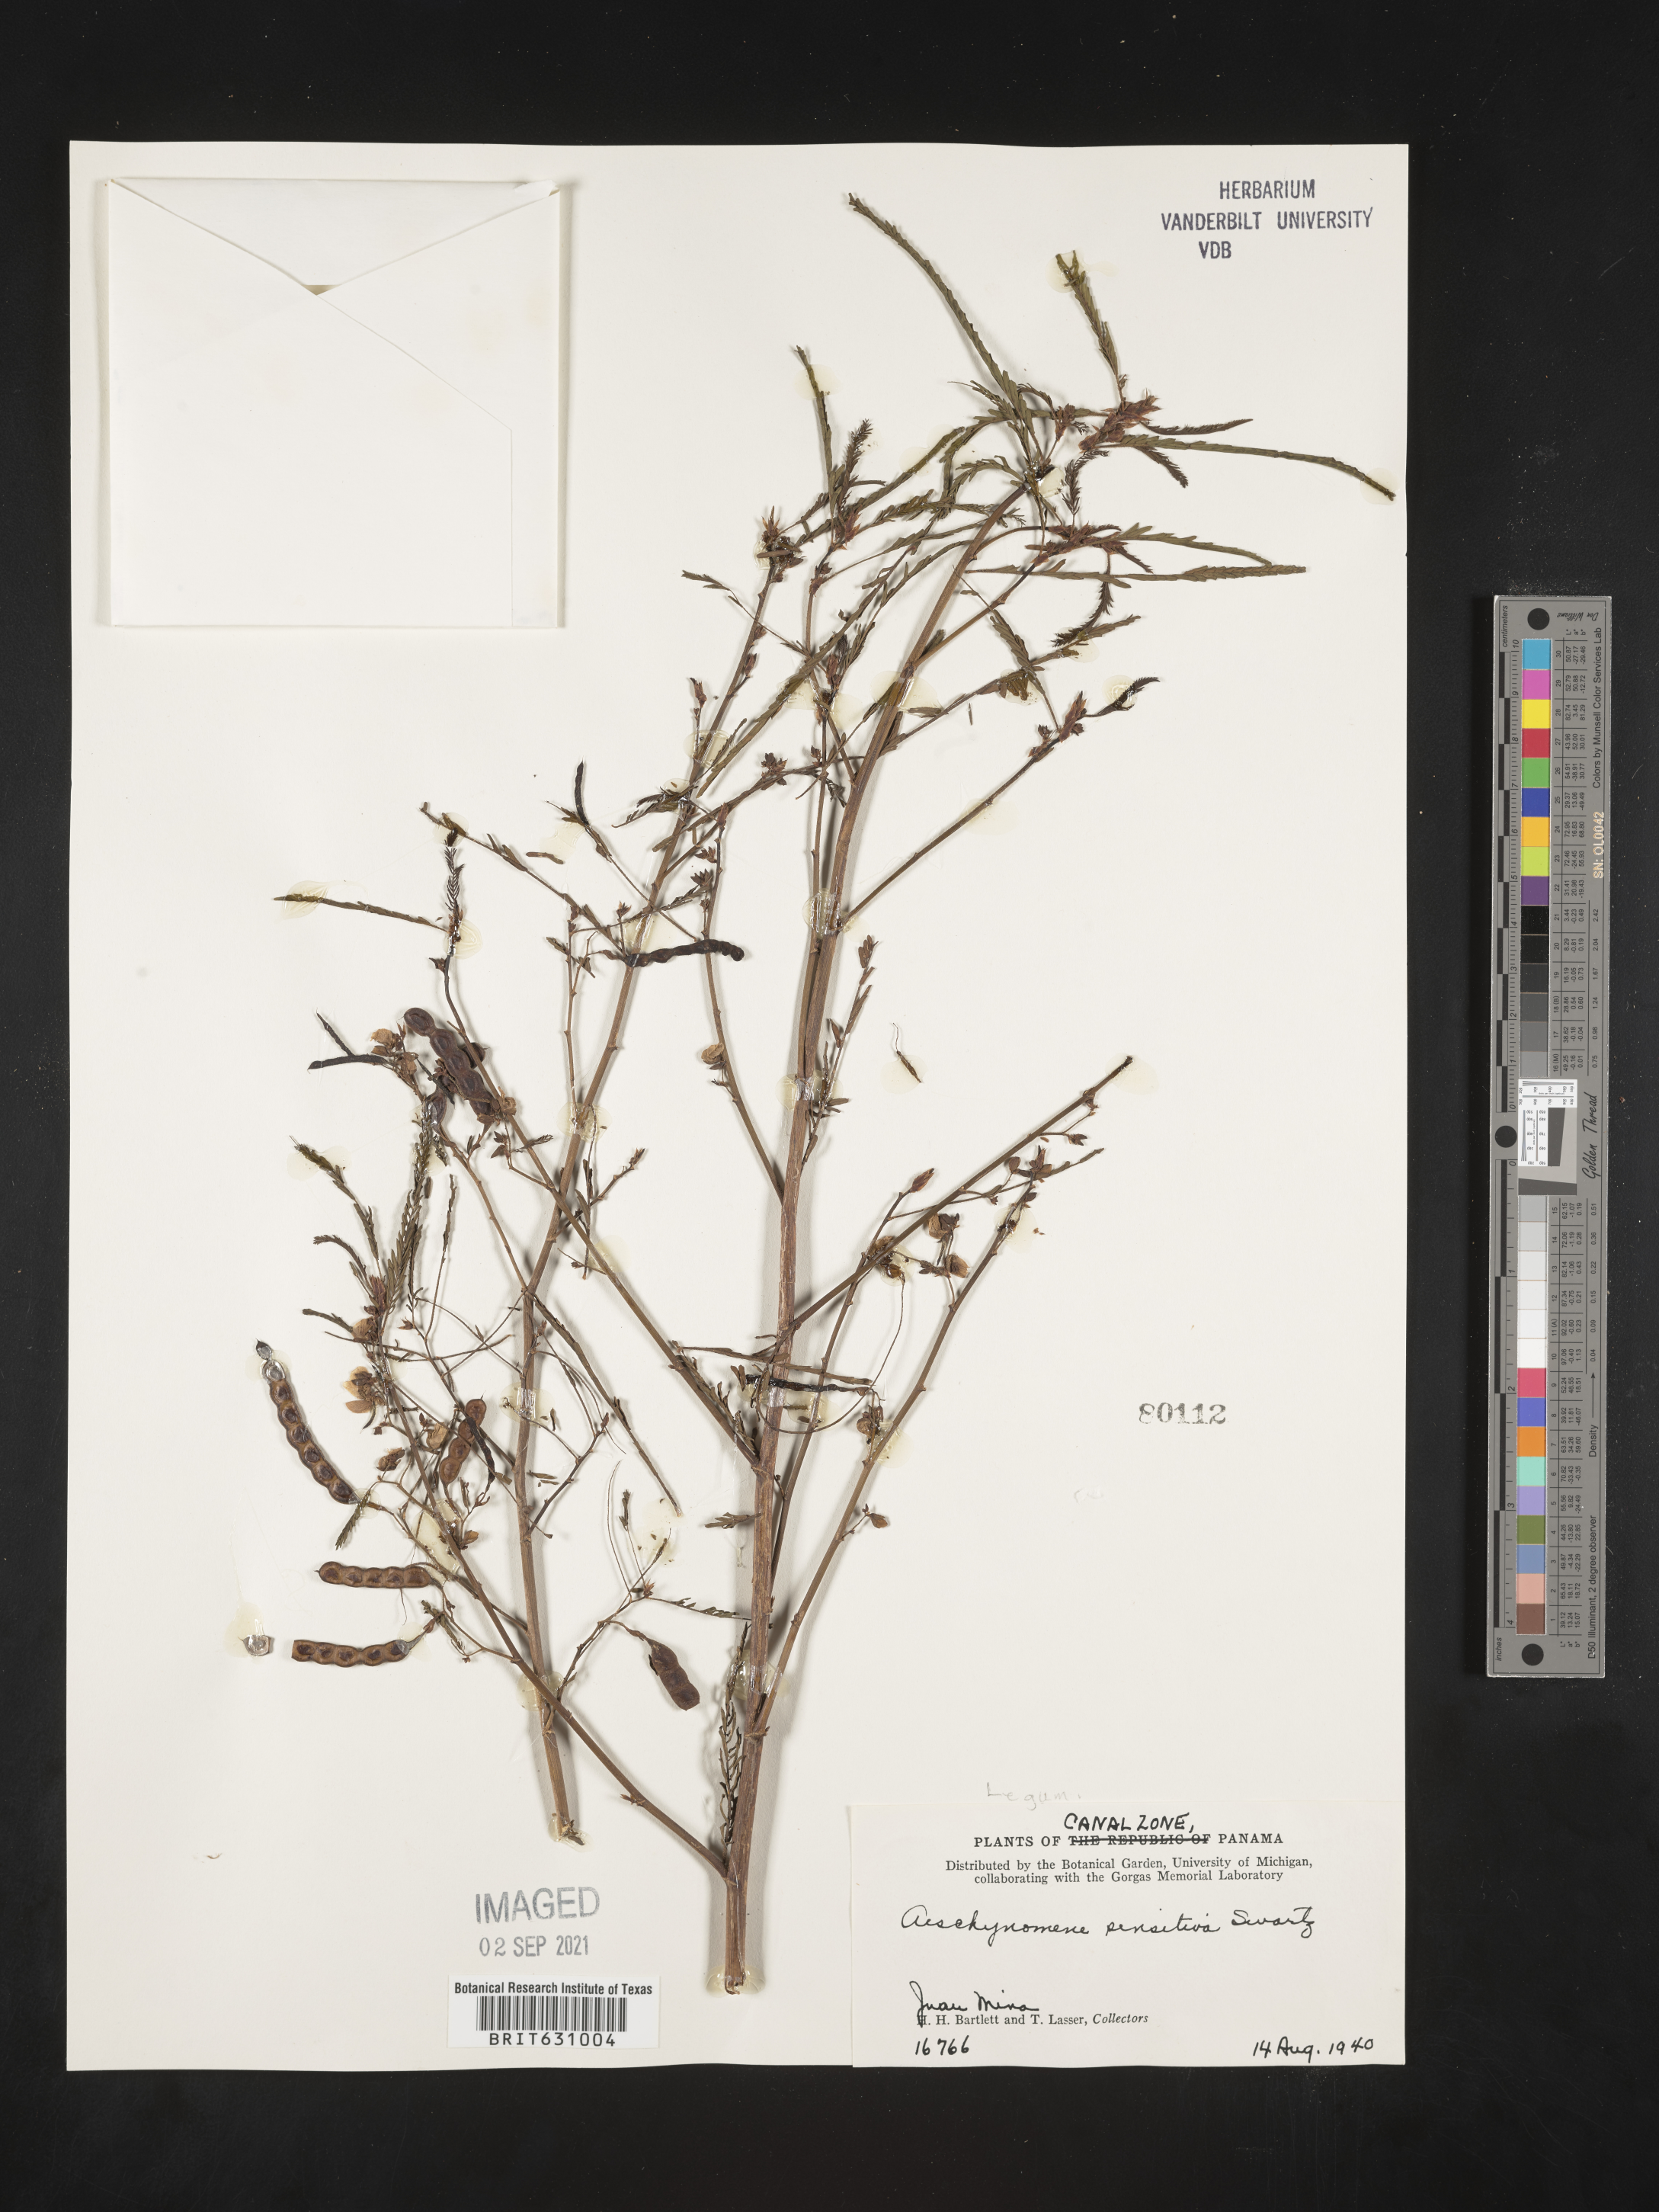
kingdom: Plantae
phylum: Tracheophyta
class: Magnoliopsida
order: Fabales
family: Fabaceae
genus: Aeschynomene
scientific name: Aeschynomene
